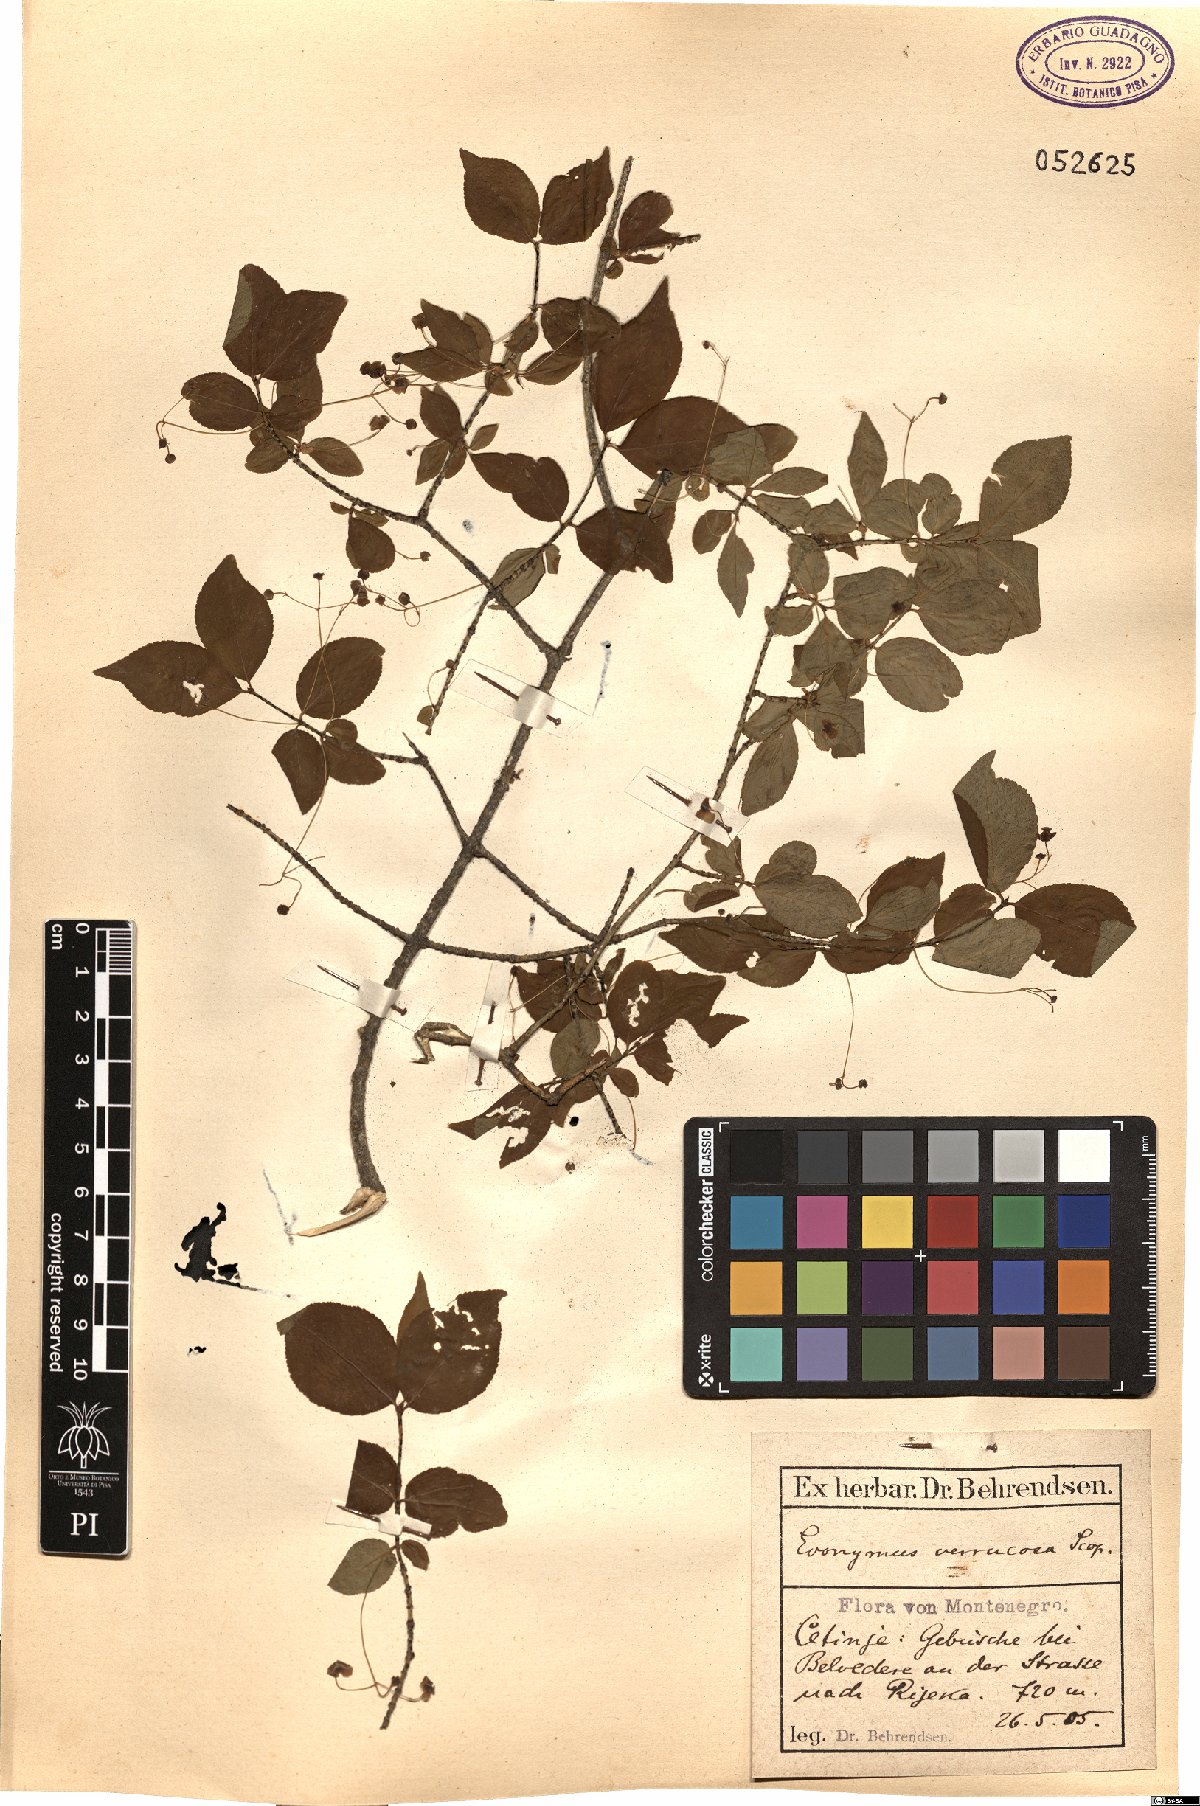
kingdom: Plantae
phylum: Tracheophyta
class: Magnoliopsida
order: Celastrales
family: Celastraceae
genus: Euonymus
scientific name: Euonymus verrucosus
